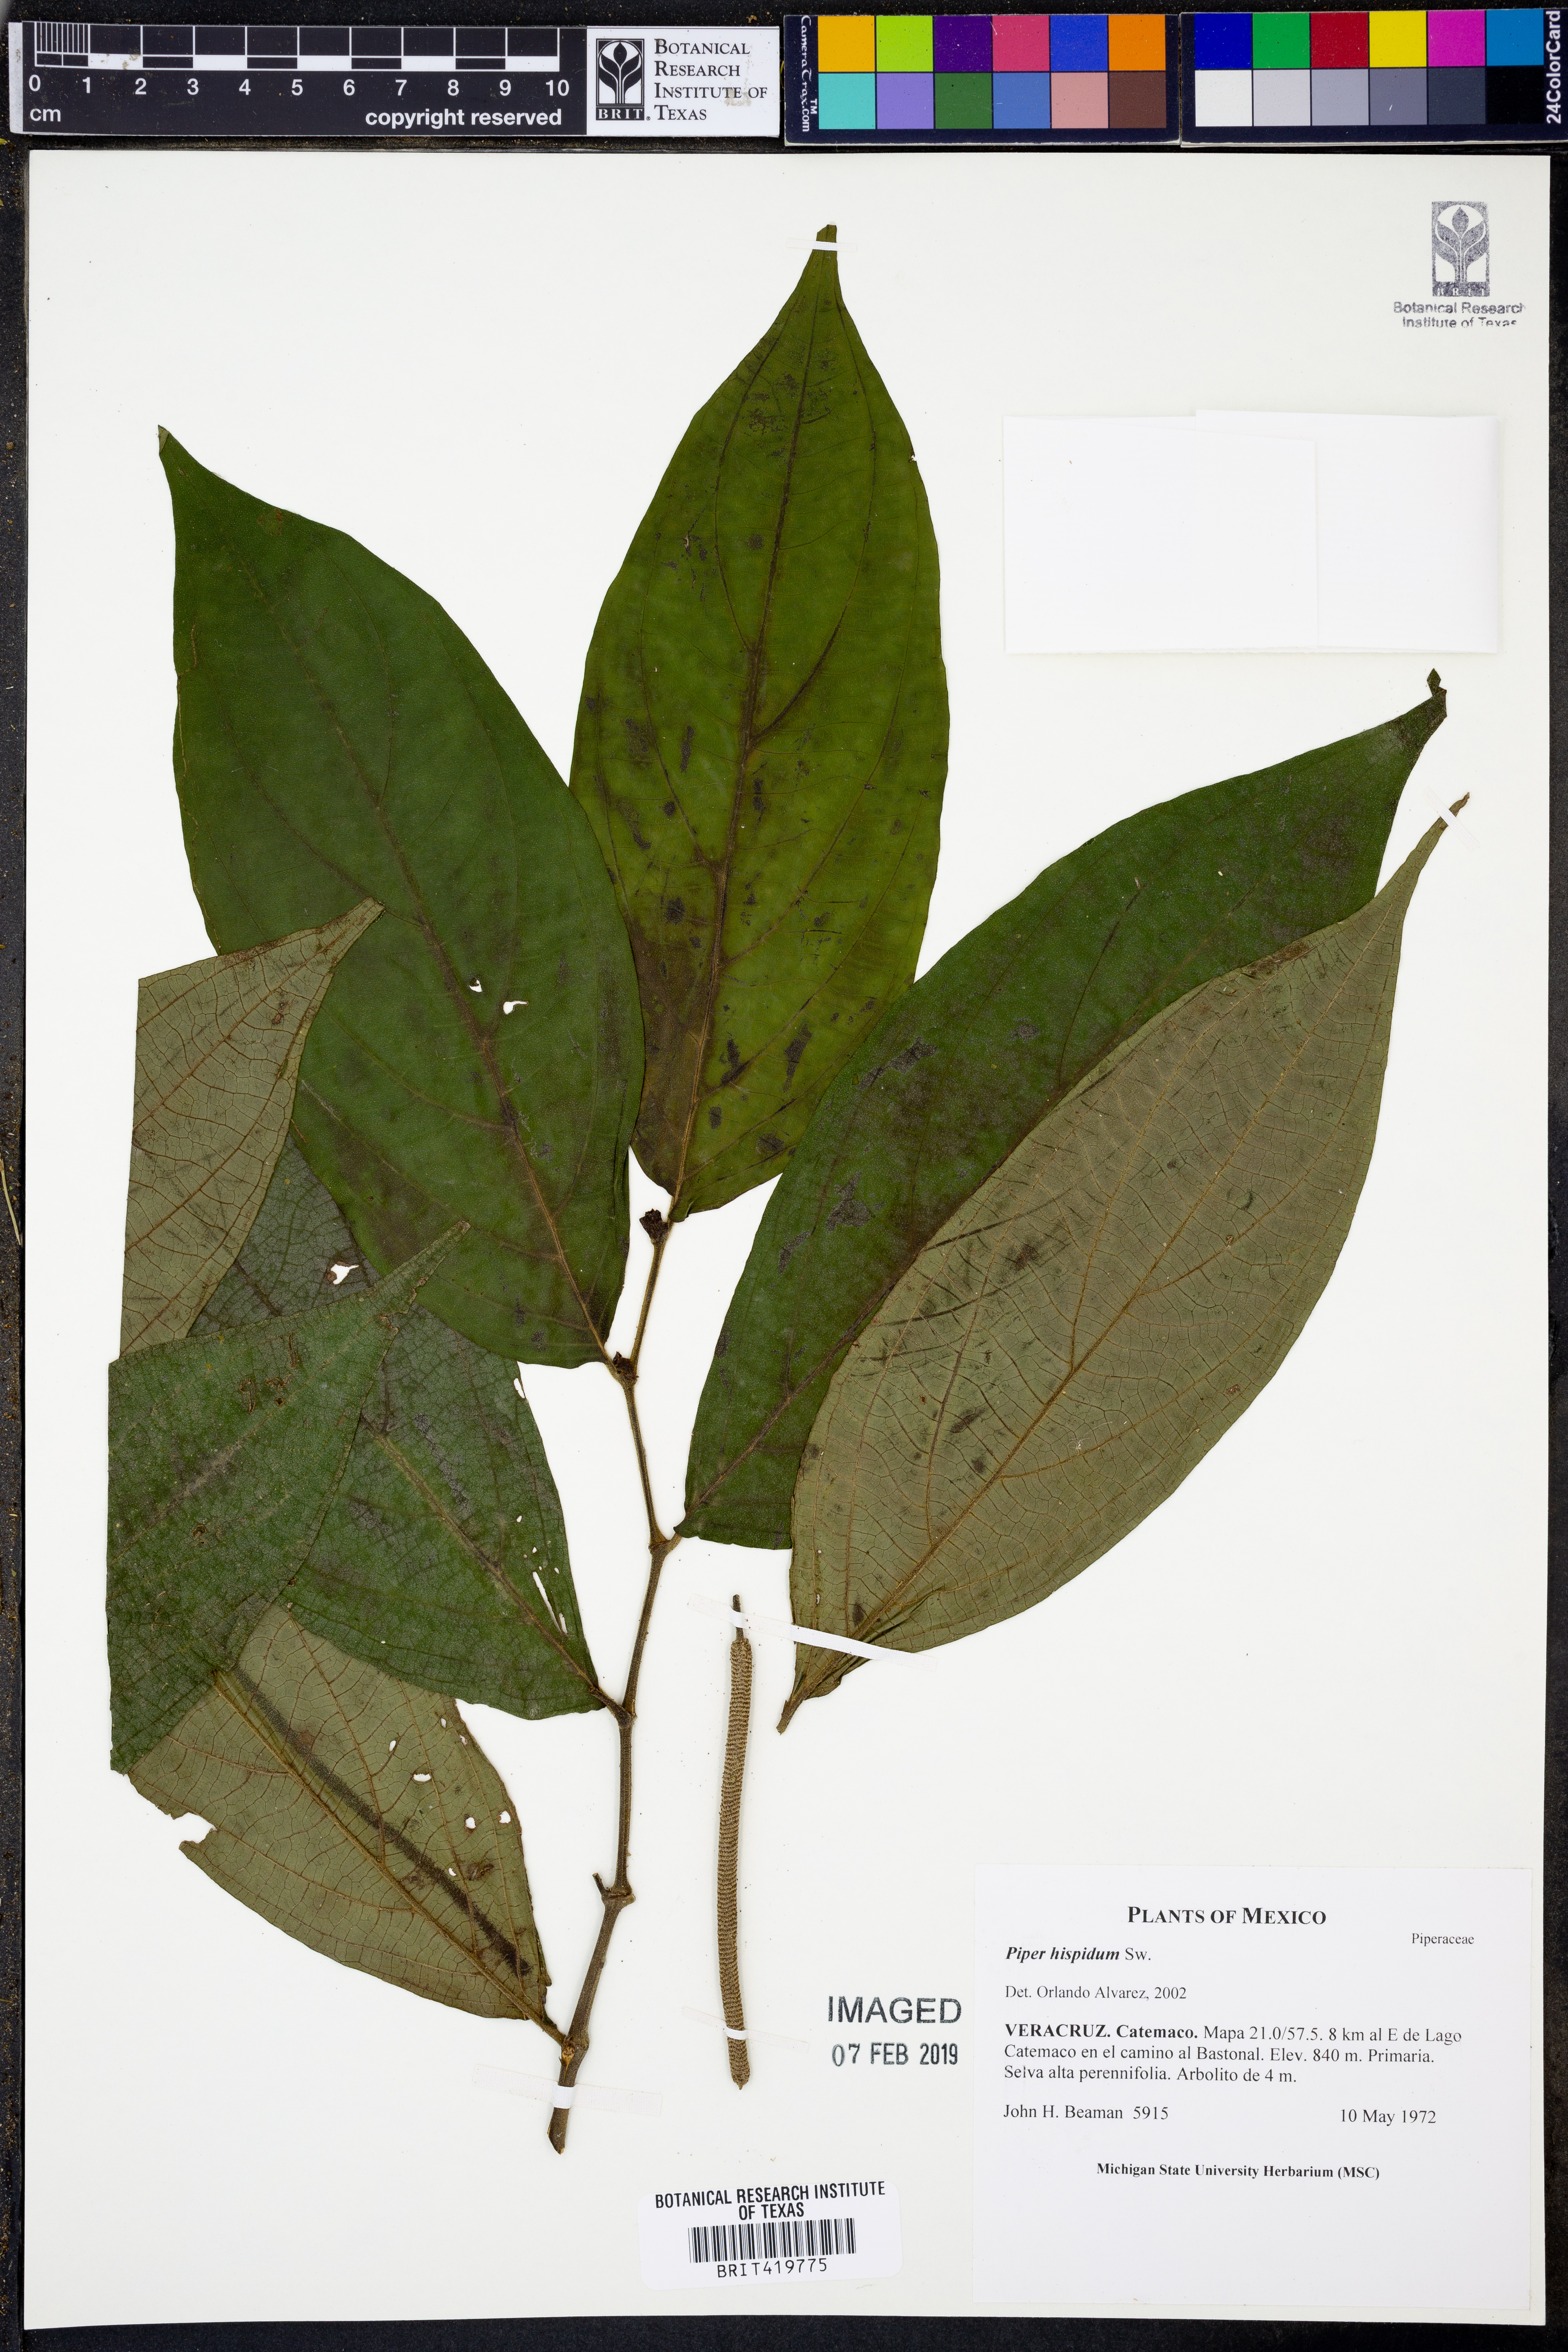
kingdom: Plantae
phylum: Tracheophyta
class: Magnoliopsida
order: Piperales
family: Piperaceae
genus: Piper
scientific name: Piper hispidum
